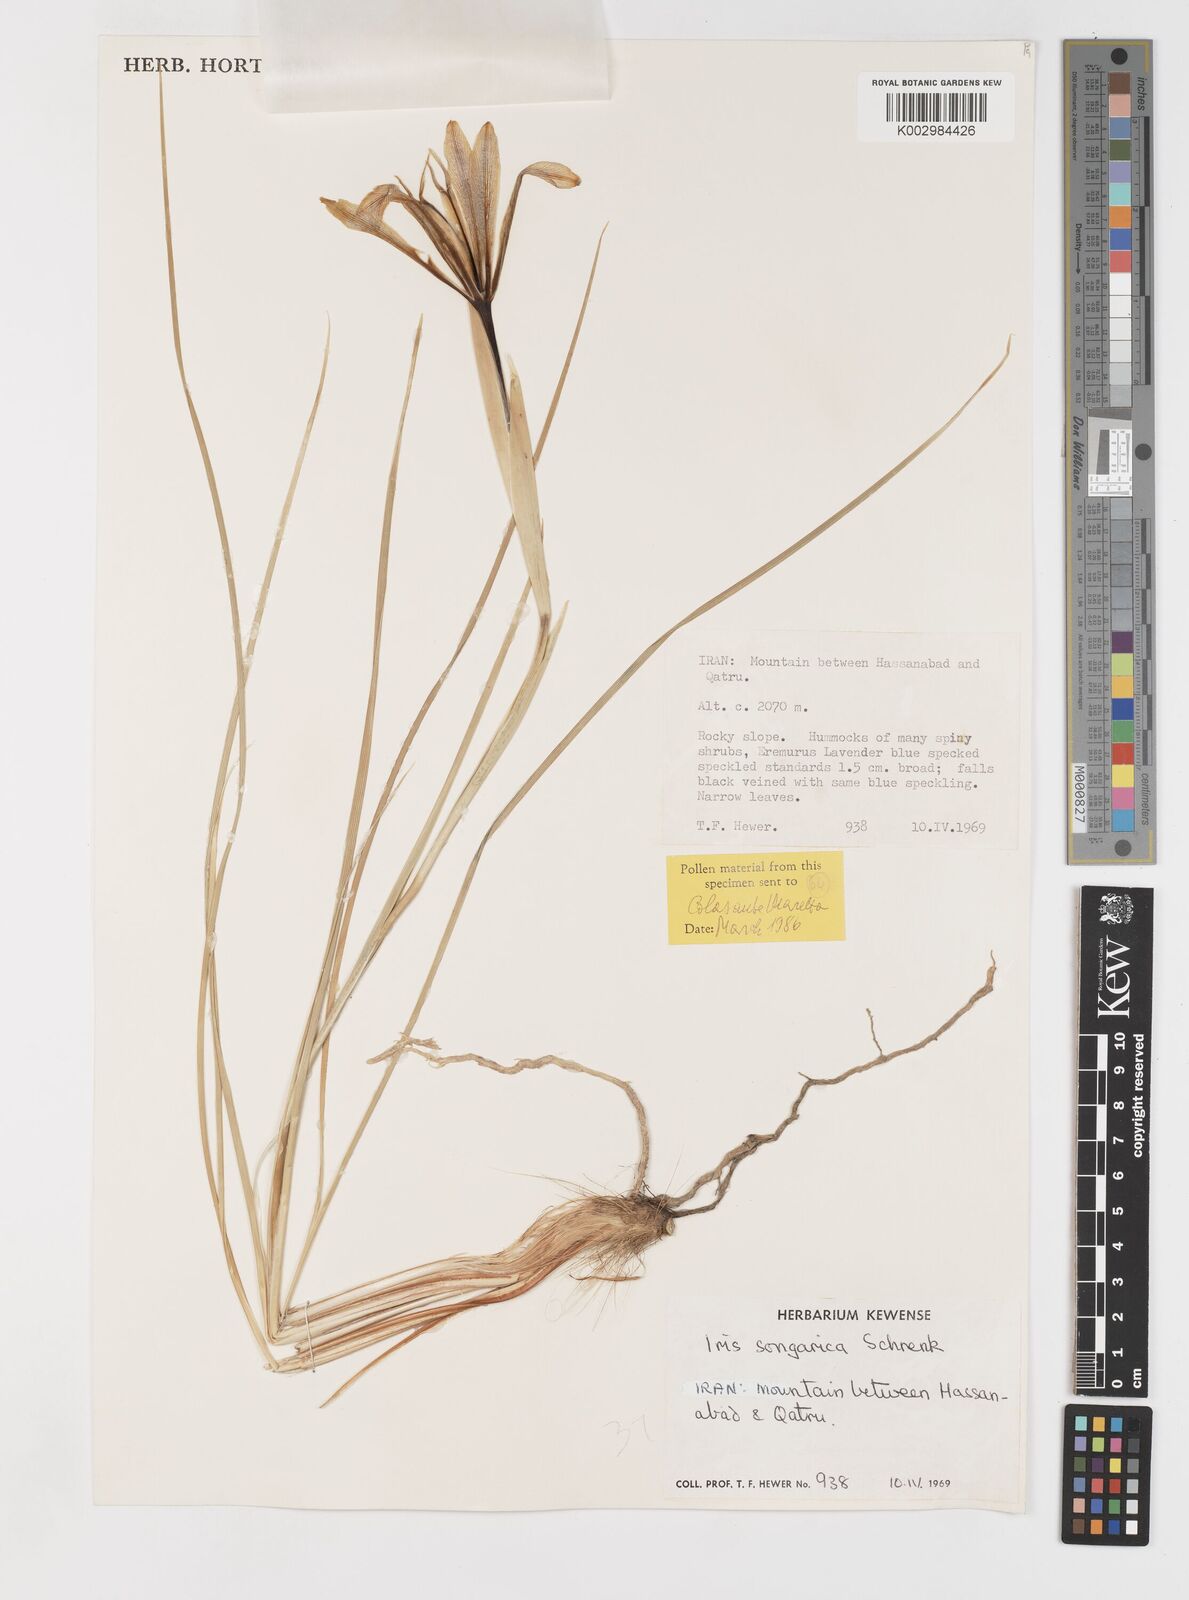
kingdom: Plantae
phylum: Tracheophyta
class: Liliopsida
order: Asparagales
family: Iridaceae
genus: Iris
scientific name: Iris songarica
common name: Songar iris
